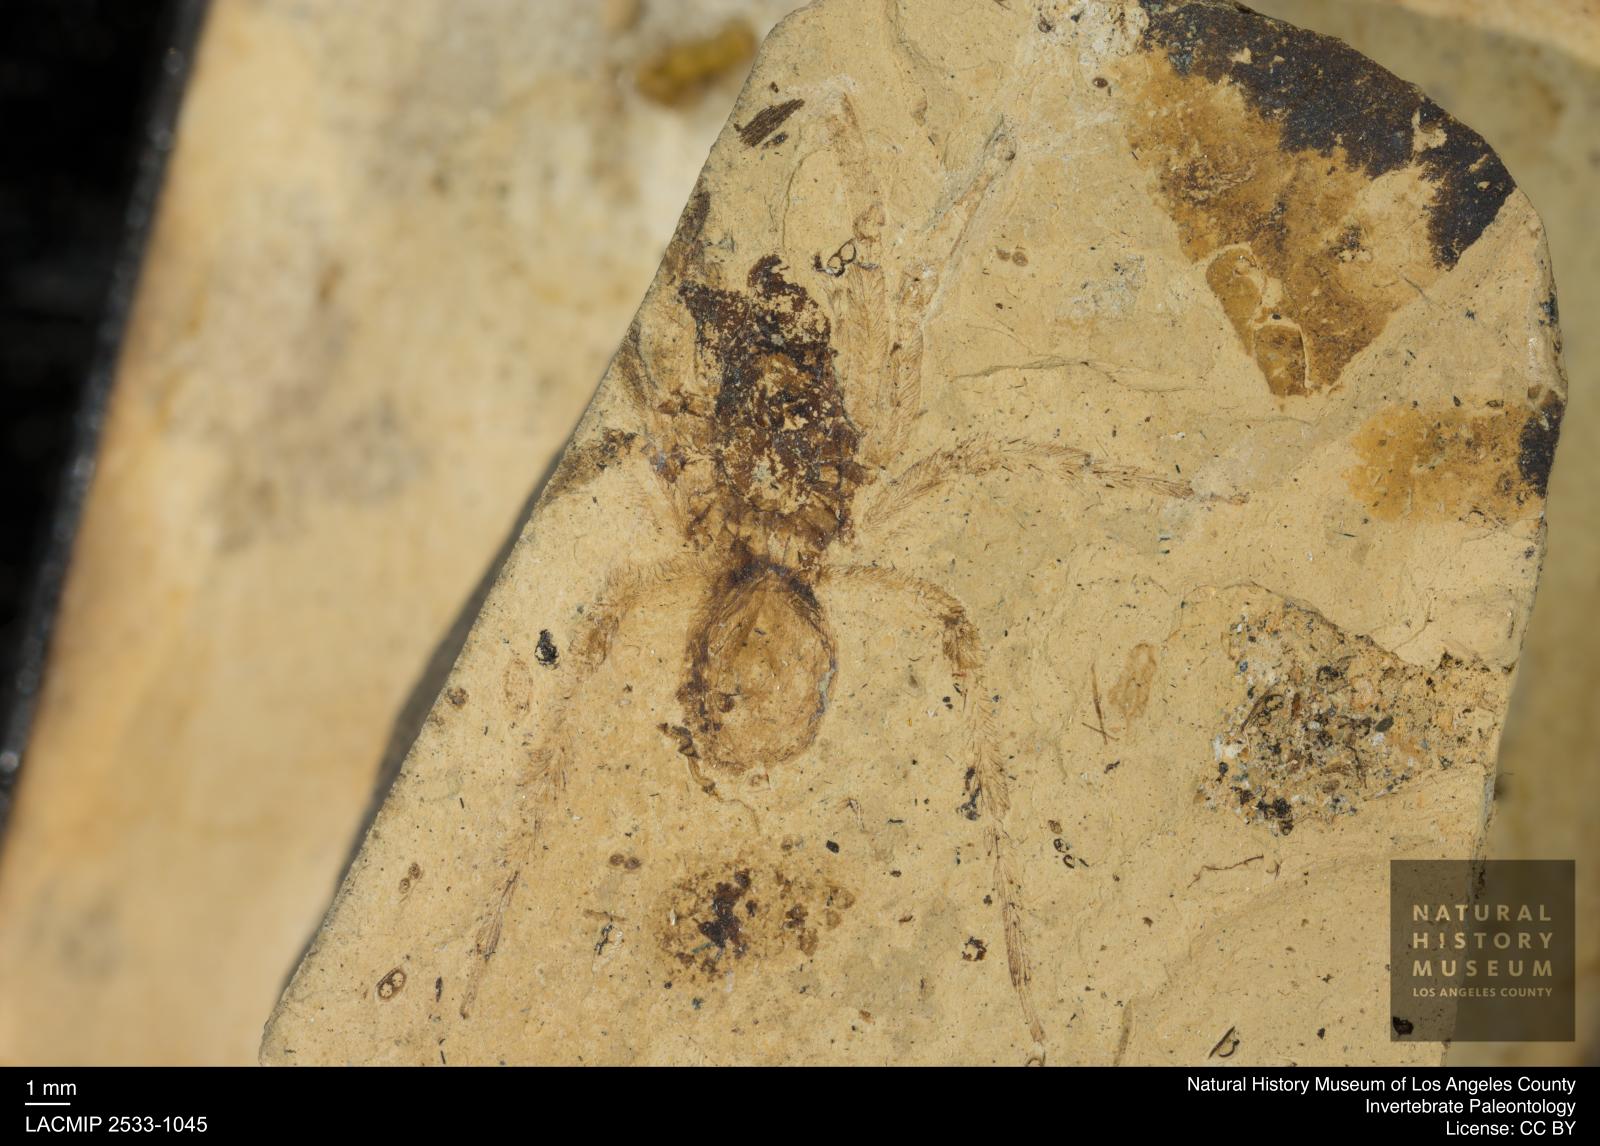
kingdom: Animalia
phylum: Arthropoda
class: Arachnida
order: Araneae
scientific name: Araneae
